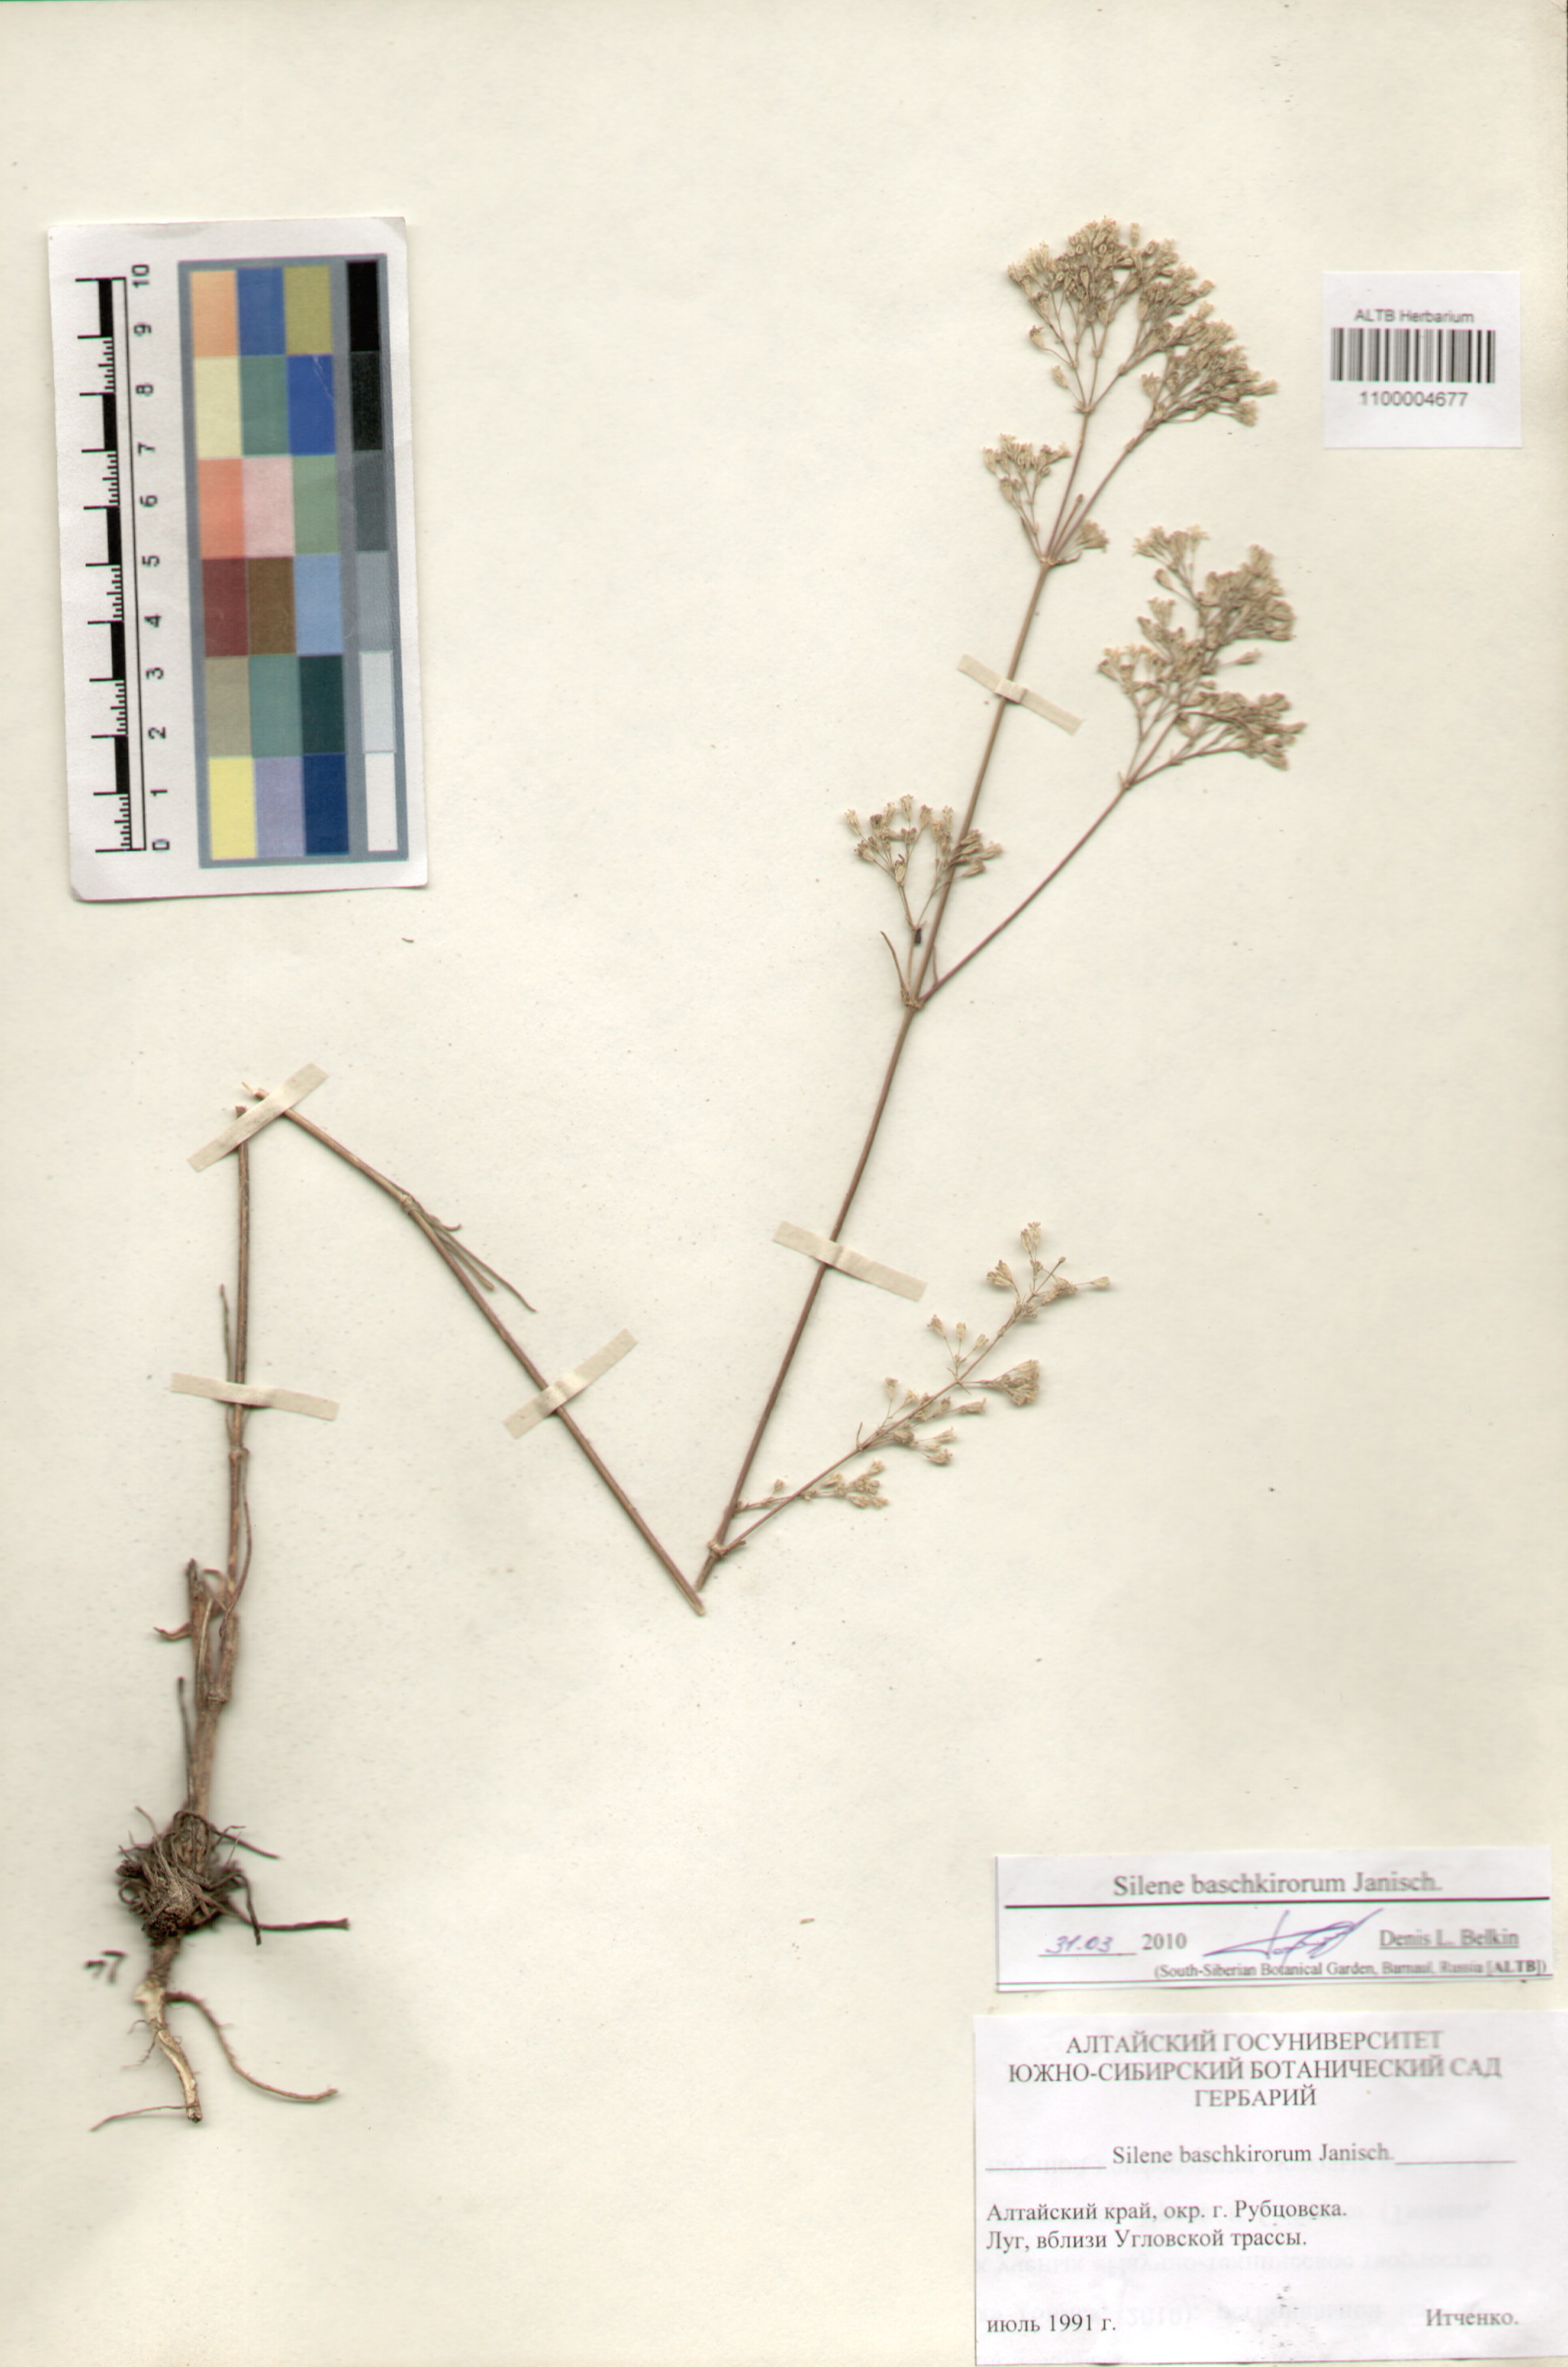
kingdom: Plantae
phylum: Tracheophyta
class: Magnoliopsida
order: Caryophyllales
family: Caryophyllaceae
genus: Silene
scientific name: Silene baschkirorum
